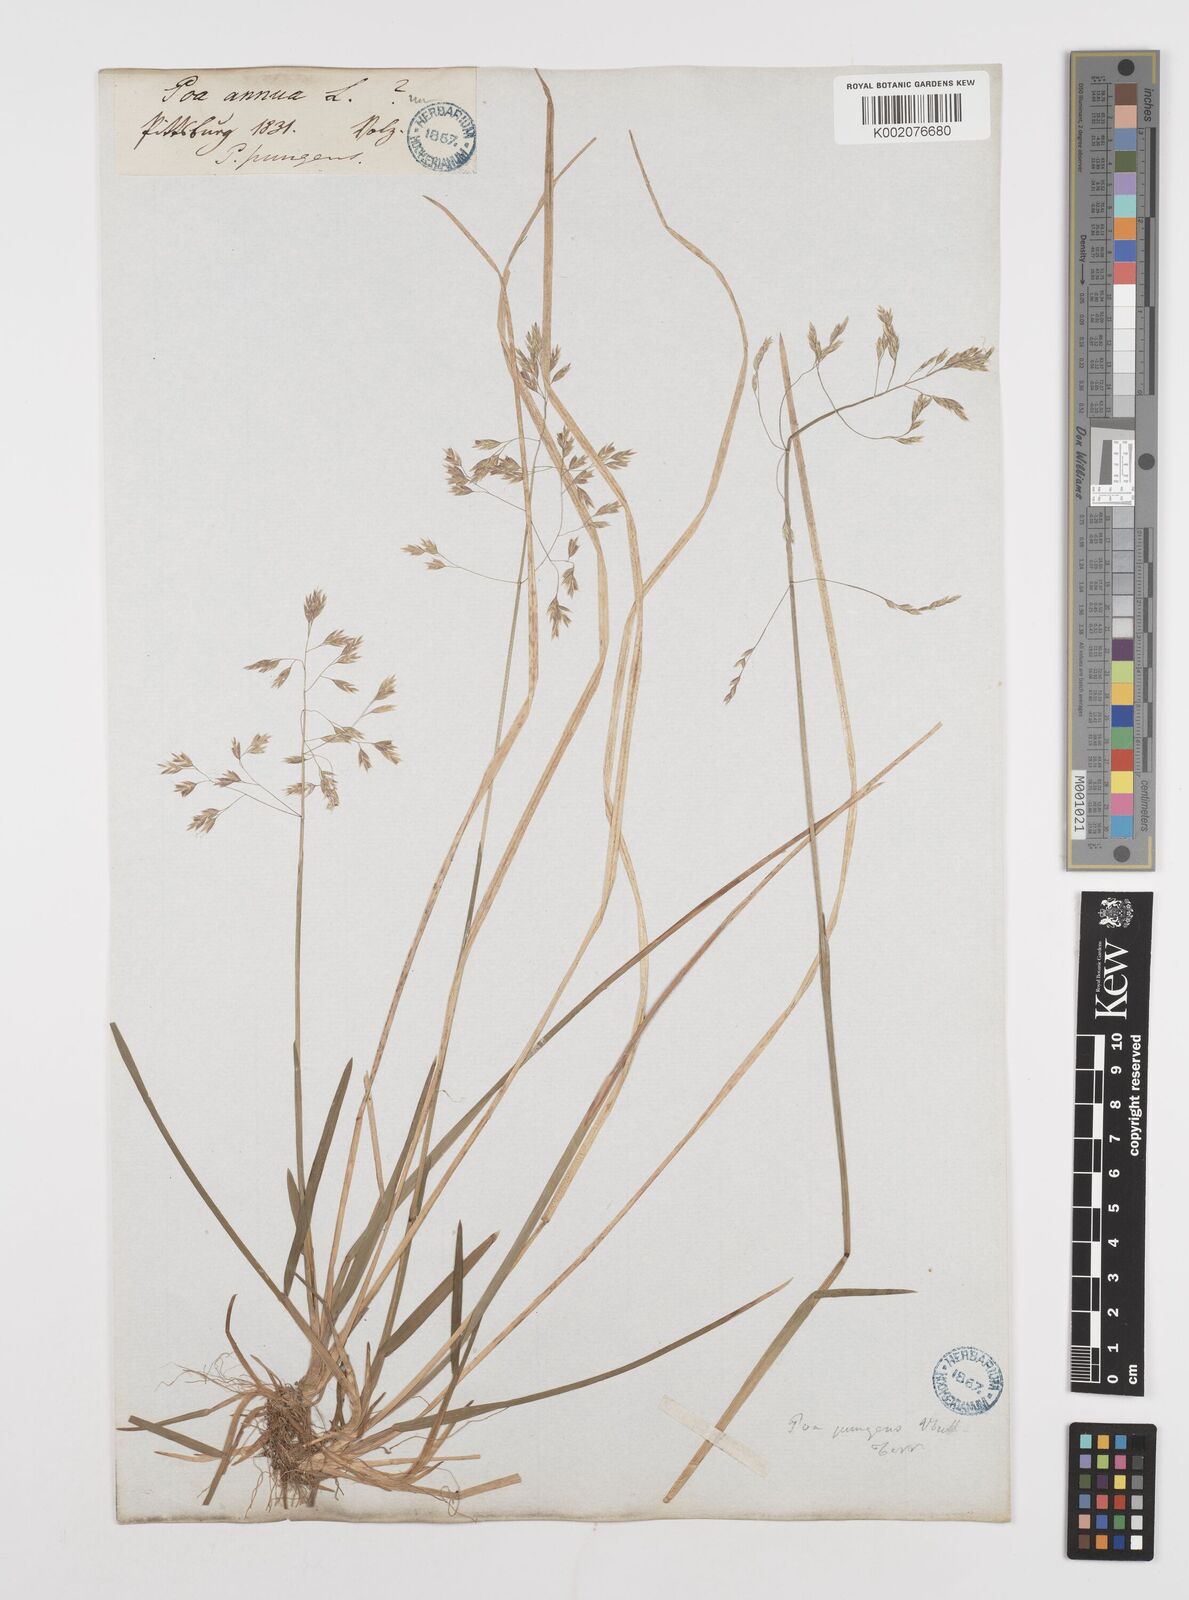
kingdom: Plantae
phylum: Tracheophyta
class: Liliopsida
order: Poales
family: Poaceae
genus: Poa
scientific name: Poa cuspidata
